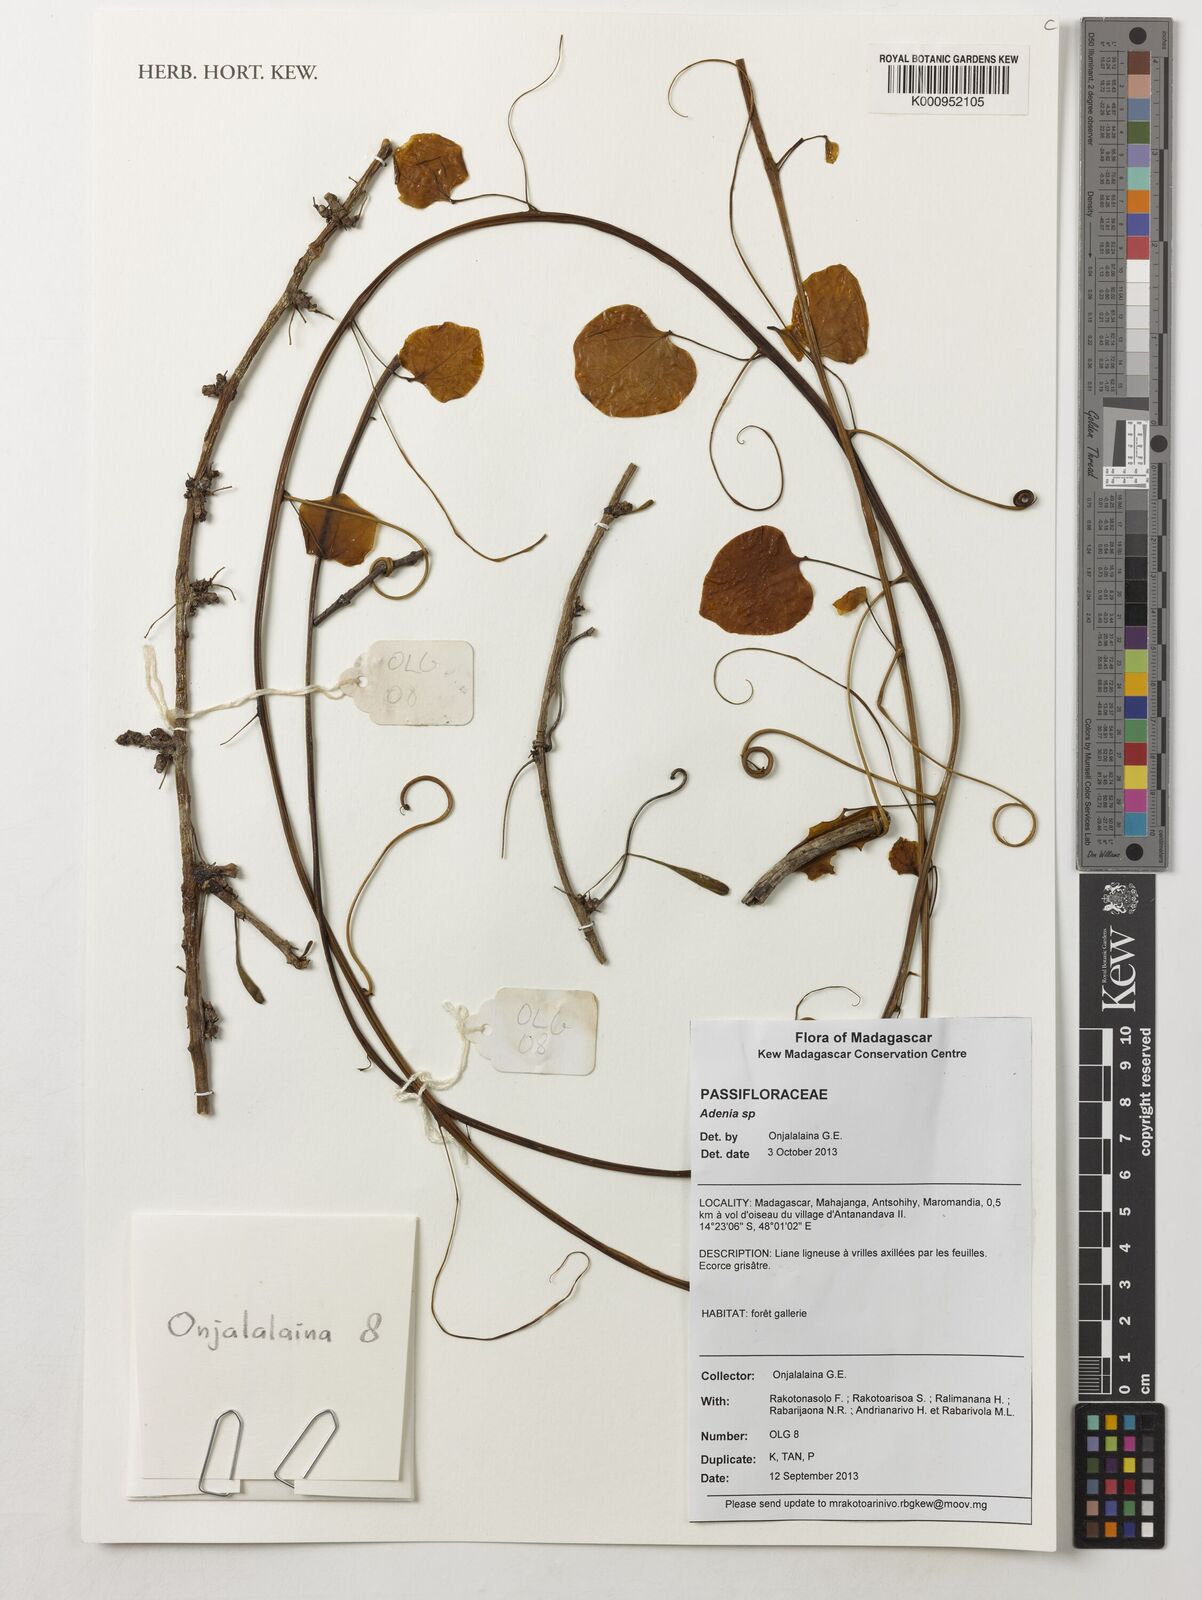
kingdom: Plantae
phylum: Tracheophyta
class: Magnoliopsida
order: Malpighiales
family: Passifloraceae
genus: Adenia
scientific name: Adenia
